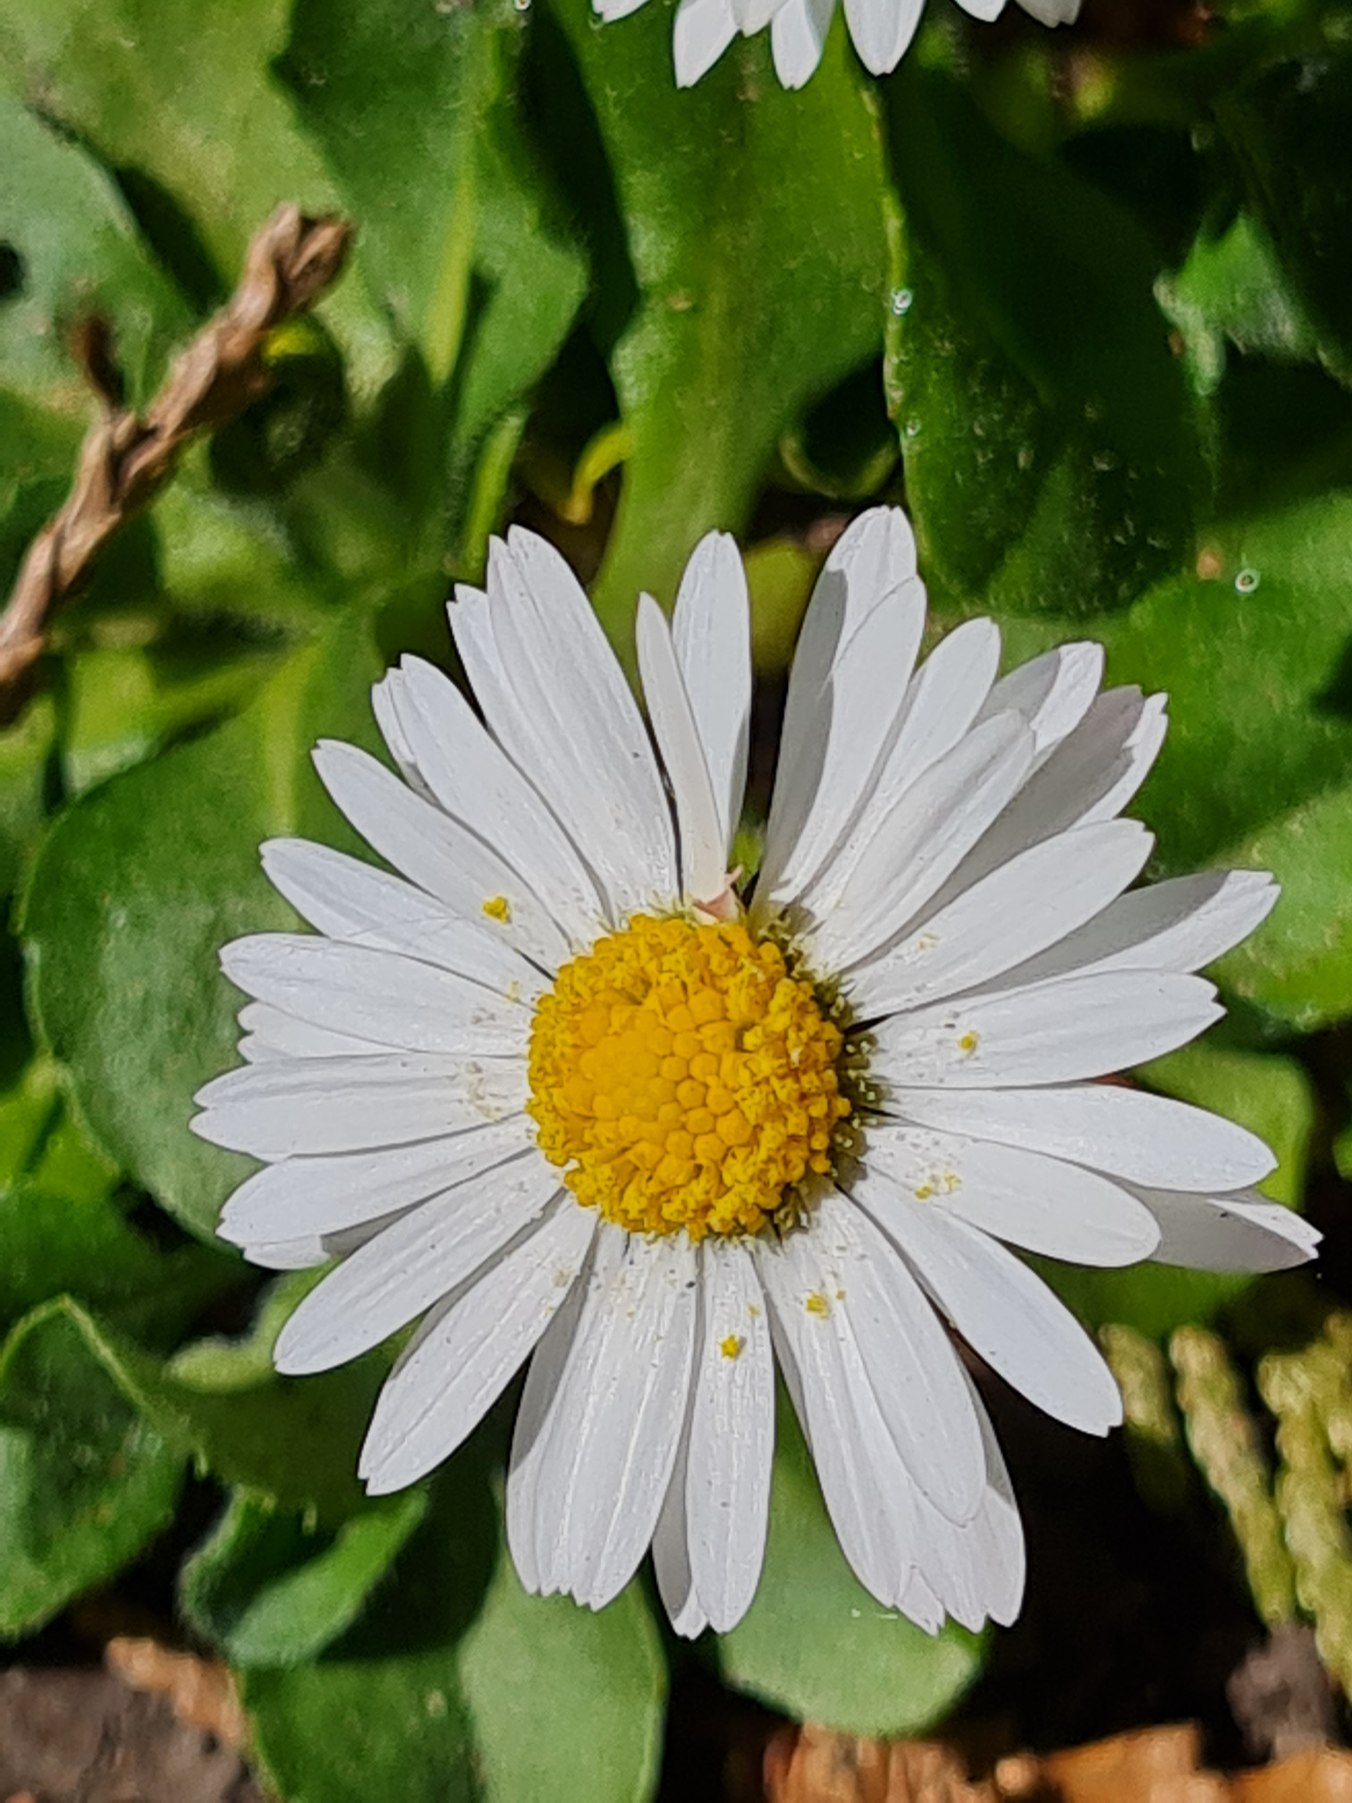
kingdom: Plantae
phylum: Tracheophyta
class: Magnoliopsida
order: Asterales
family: Asteraceae
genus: Bellis
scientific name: Bellis perennis
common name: Tusindfryd
